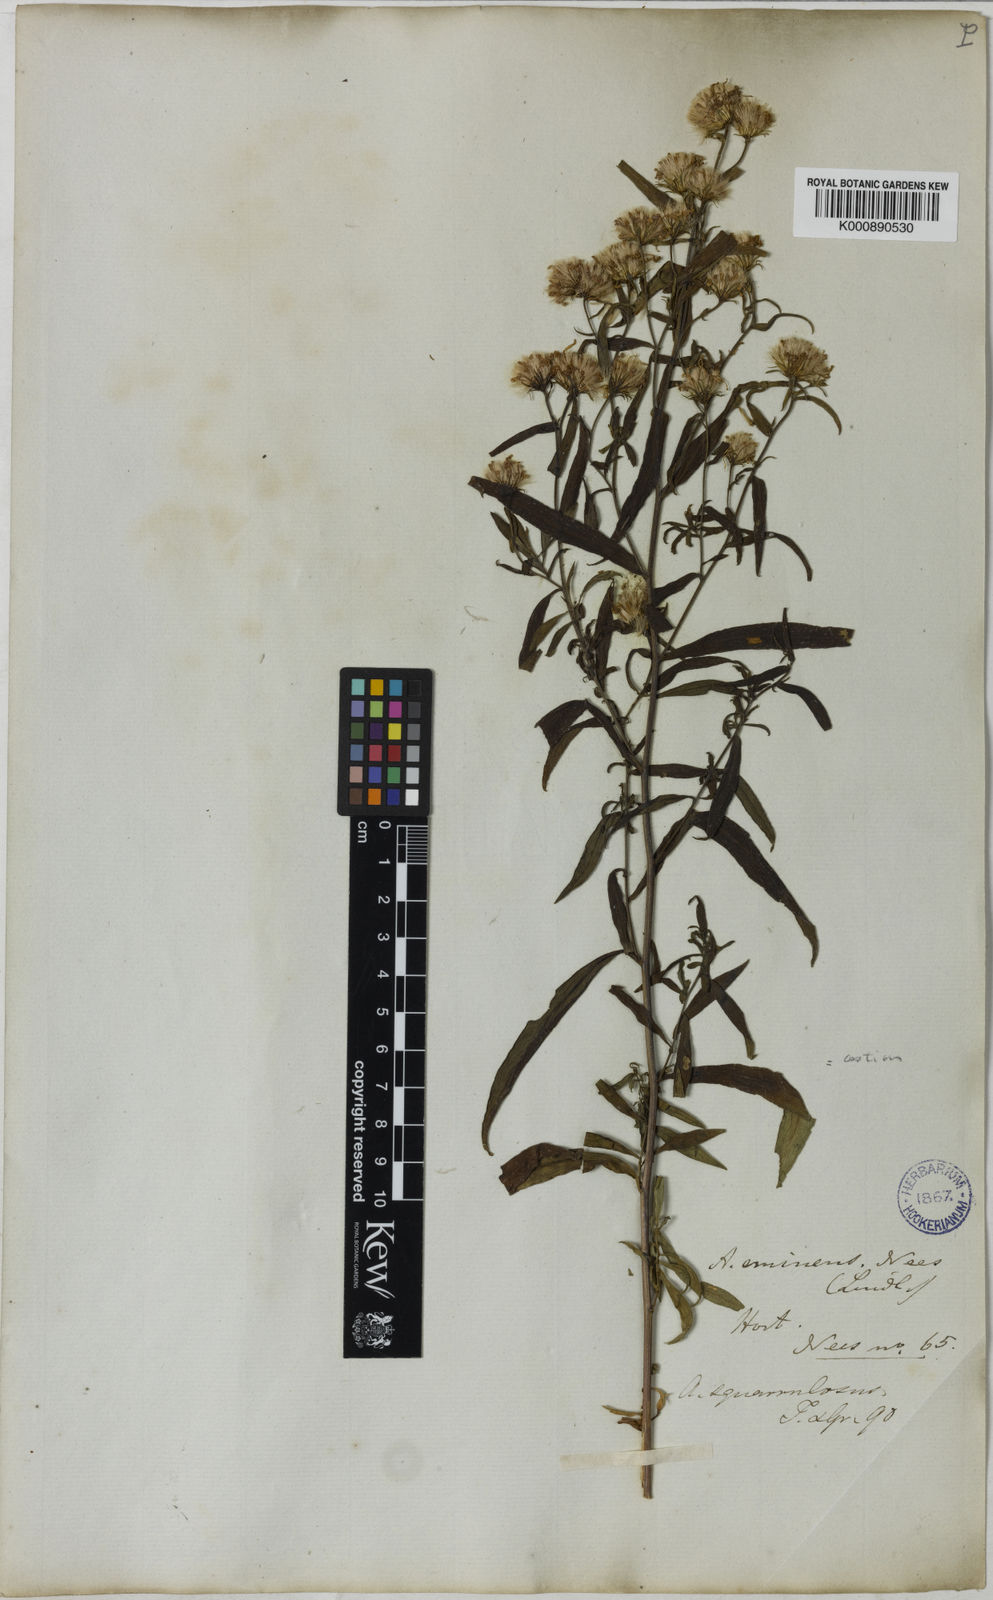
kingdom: Plantae
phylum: Tracheophyta
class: Magnoliopsida
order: Asterales
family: Asteraceae
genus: Aster
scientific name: Aster
